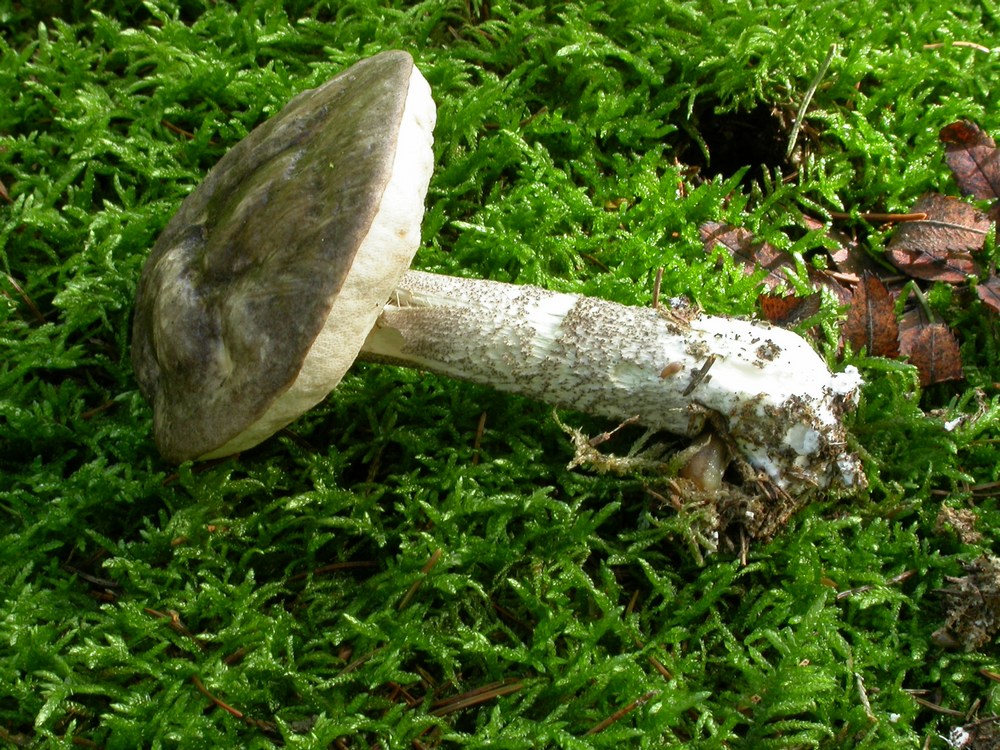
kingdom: Fungi
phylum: Basidiomycota
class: Agaricomycetes
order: Boletales
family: Boletaceae
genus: Leccinum
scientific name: Leccinum variicolor
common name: flammet skælrørhat
